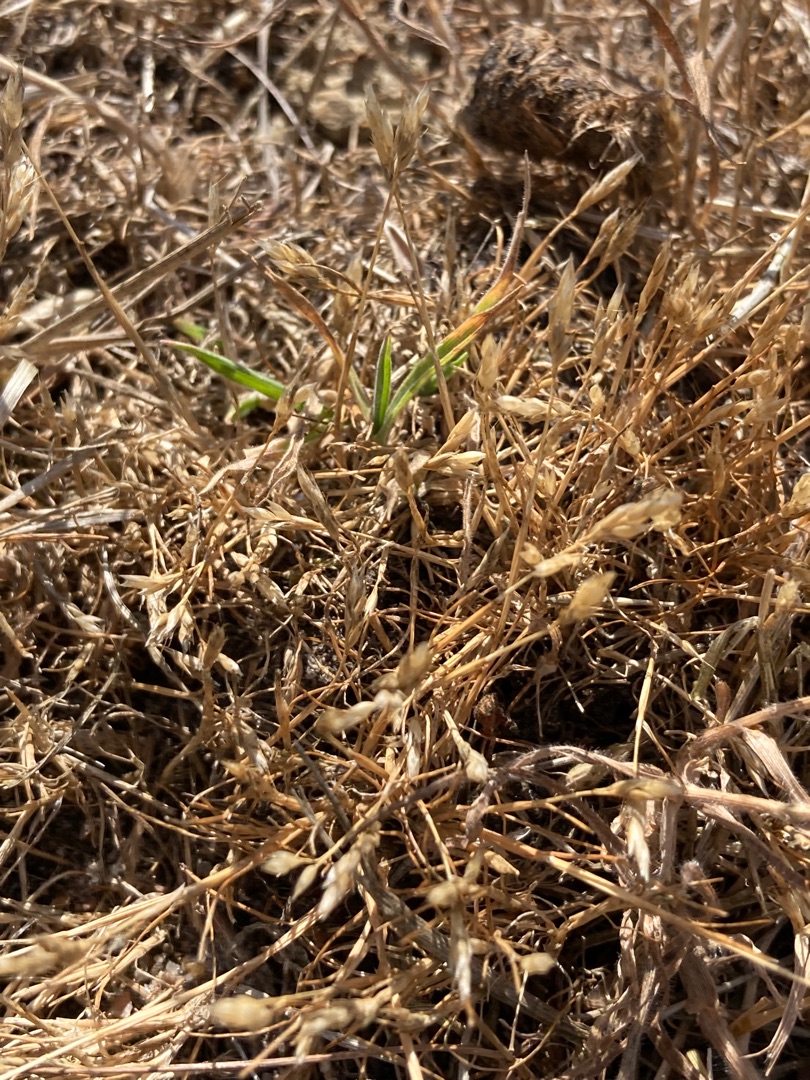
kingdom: Plantae
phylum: Tracheophyta
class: Liliopsida
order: Poales
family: Poaceae
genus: Aira
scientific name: Aira praecox
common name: Tidlig dværgbunke
